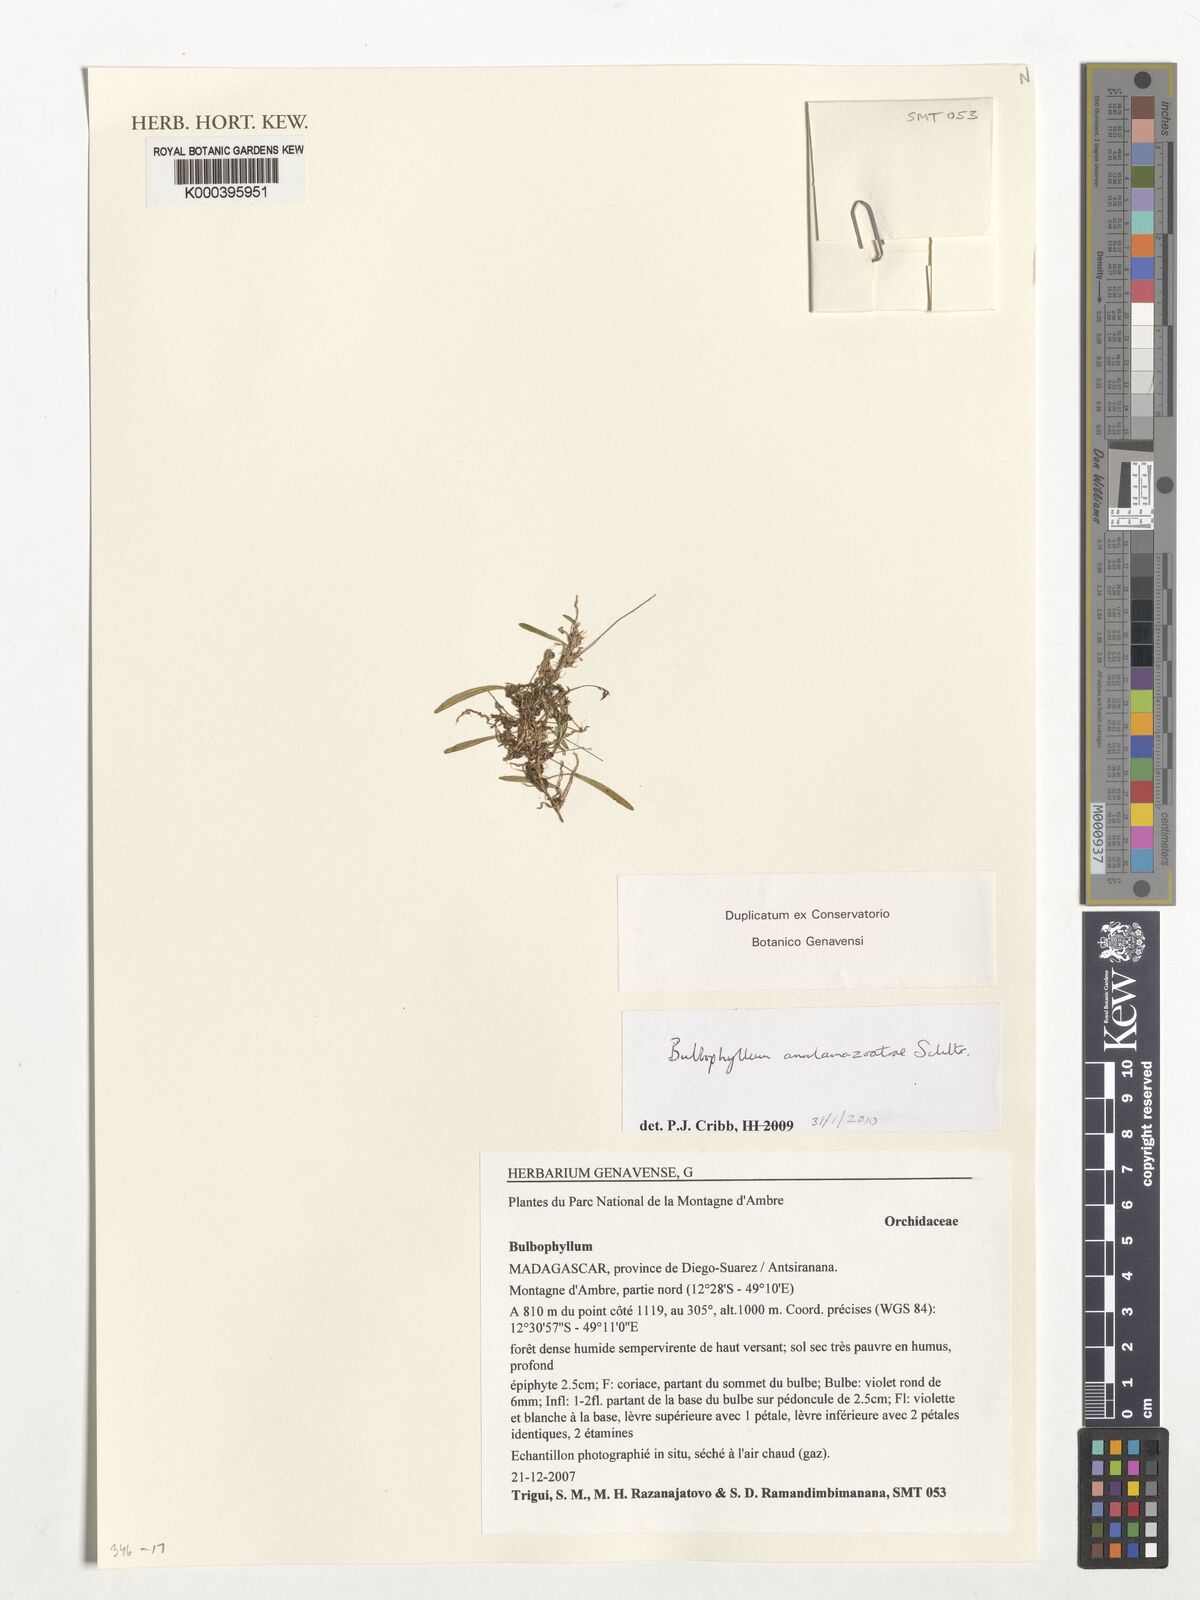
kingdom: Plantae
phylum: Tracheophyta
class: Liliopsida
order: Asparagales
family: Orchidaceae
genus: Bulbophyllum
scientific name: Bulbophyllum analamazoatrae
